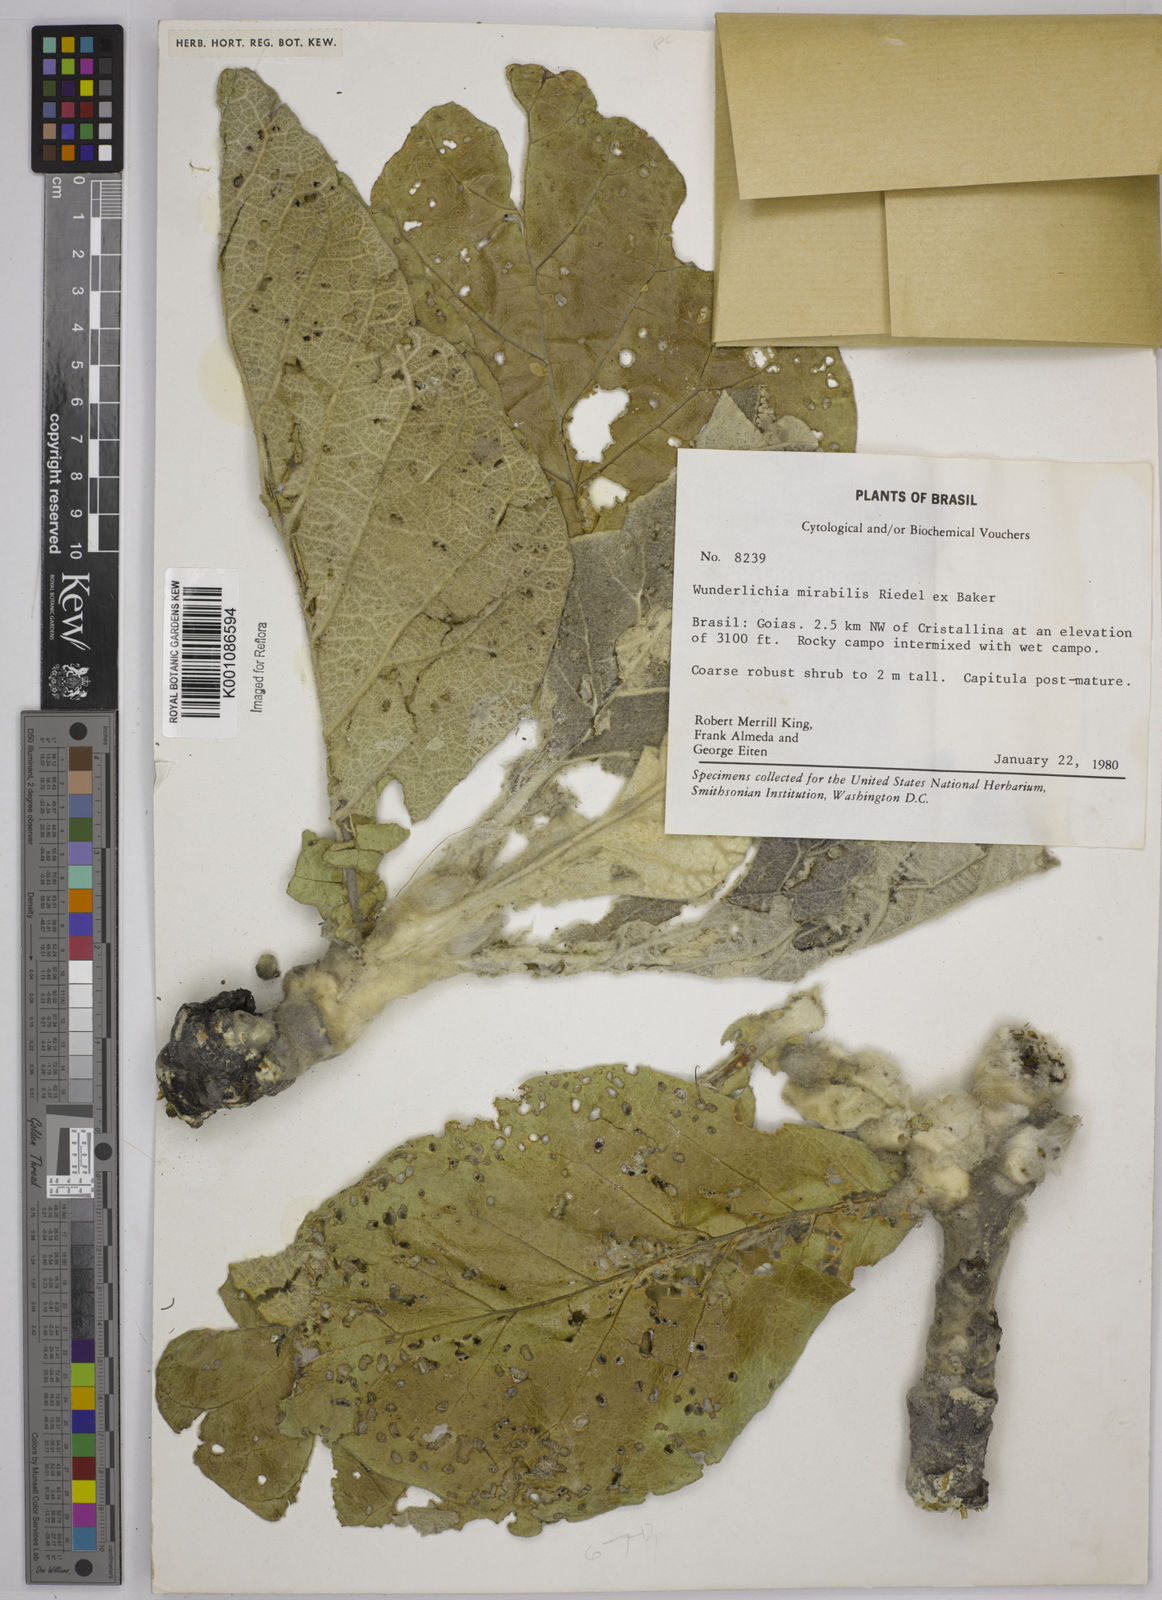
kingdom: Plantae
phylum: Tracheophyta
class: Magnoliopsida
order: Asterales
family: Asteraceae
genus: Wunderlichia
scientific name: Wunderlichia mirabilis
